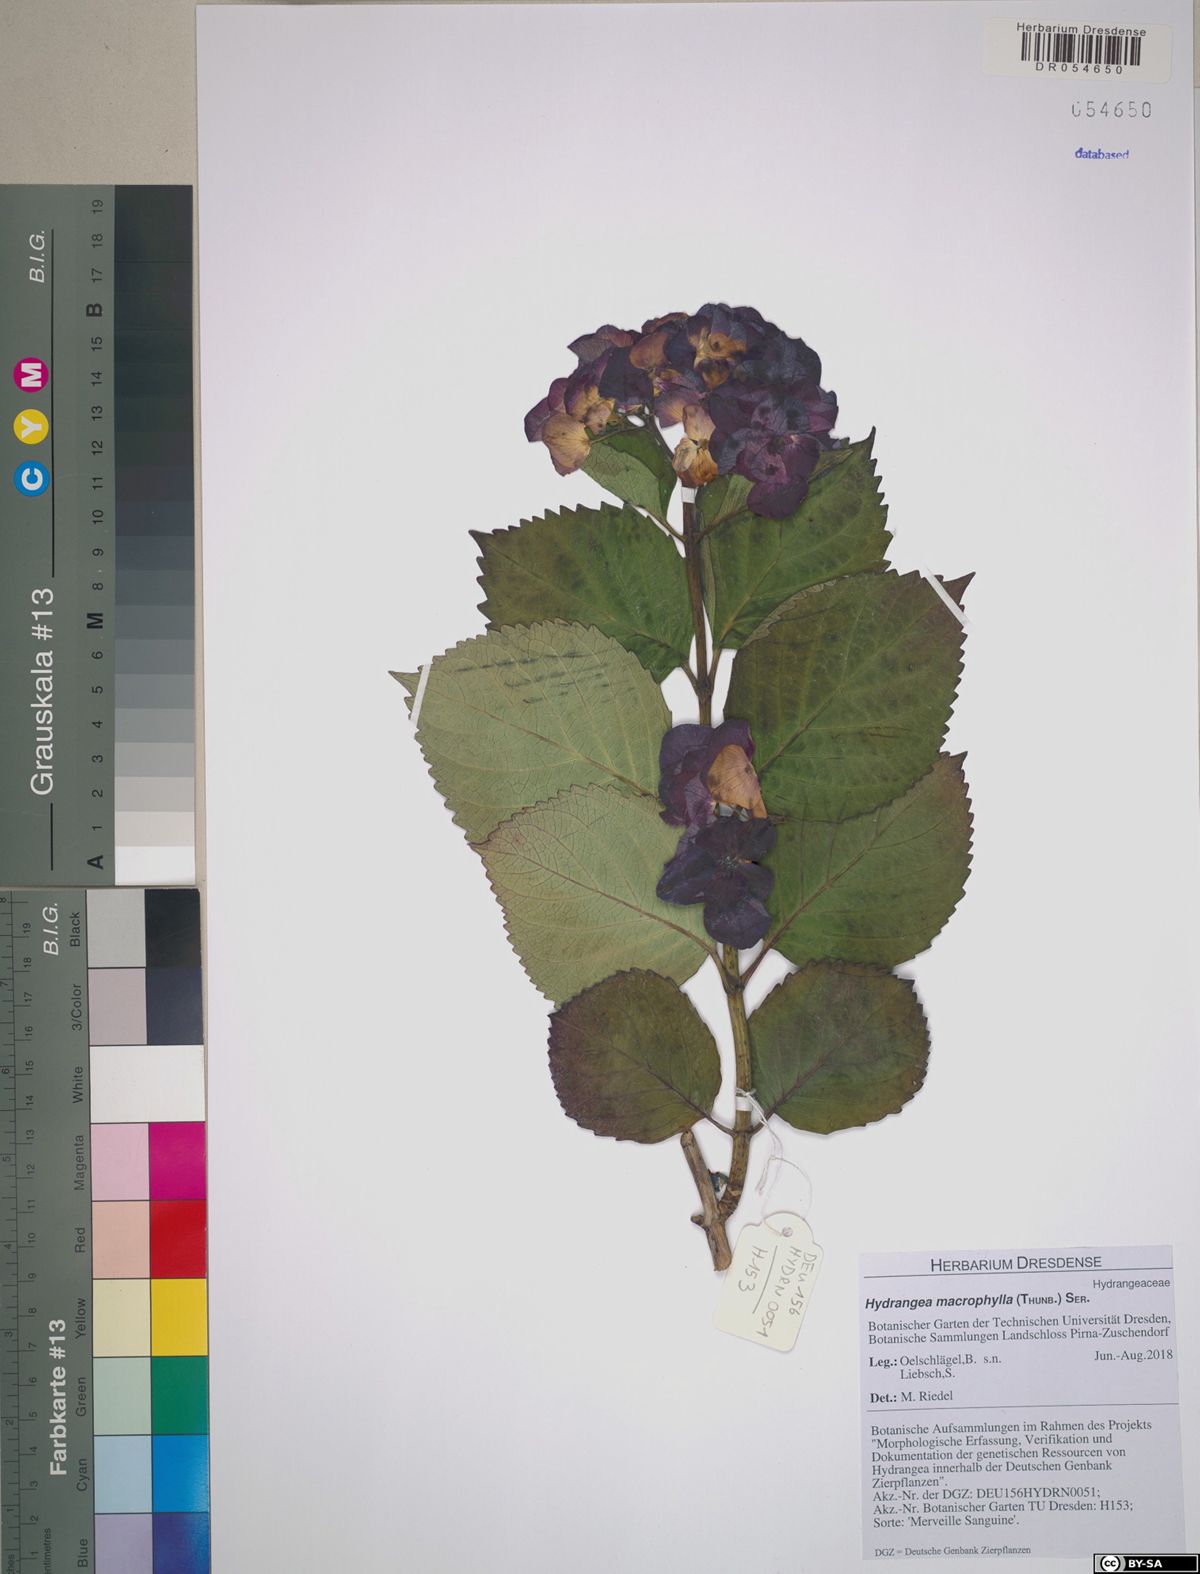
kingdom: Plantae
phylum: Tracheophyta
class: Magnoliopsida
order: Cornales
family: Hydrangeaceae
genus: Hydrangea
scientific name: Hydrangea macrophylla
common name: Hydrangea
